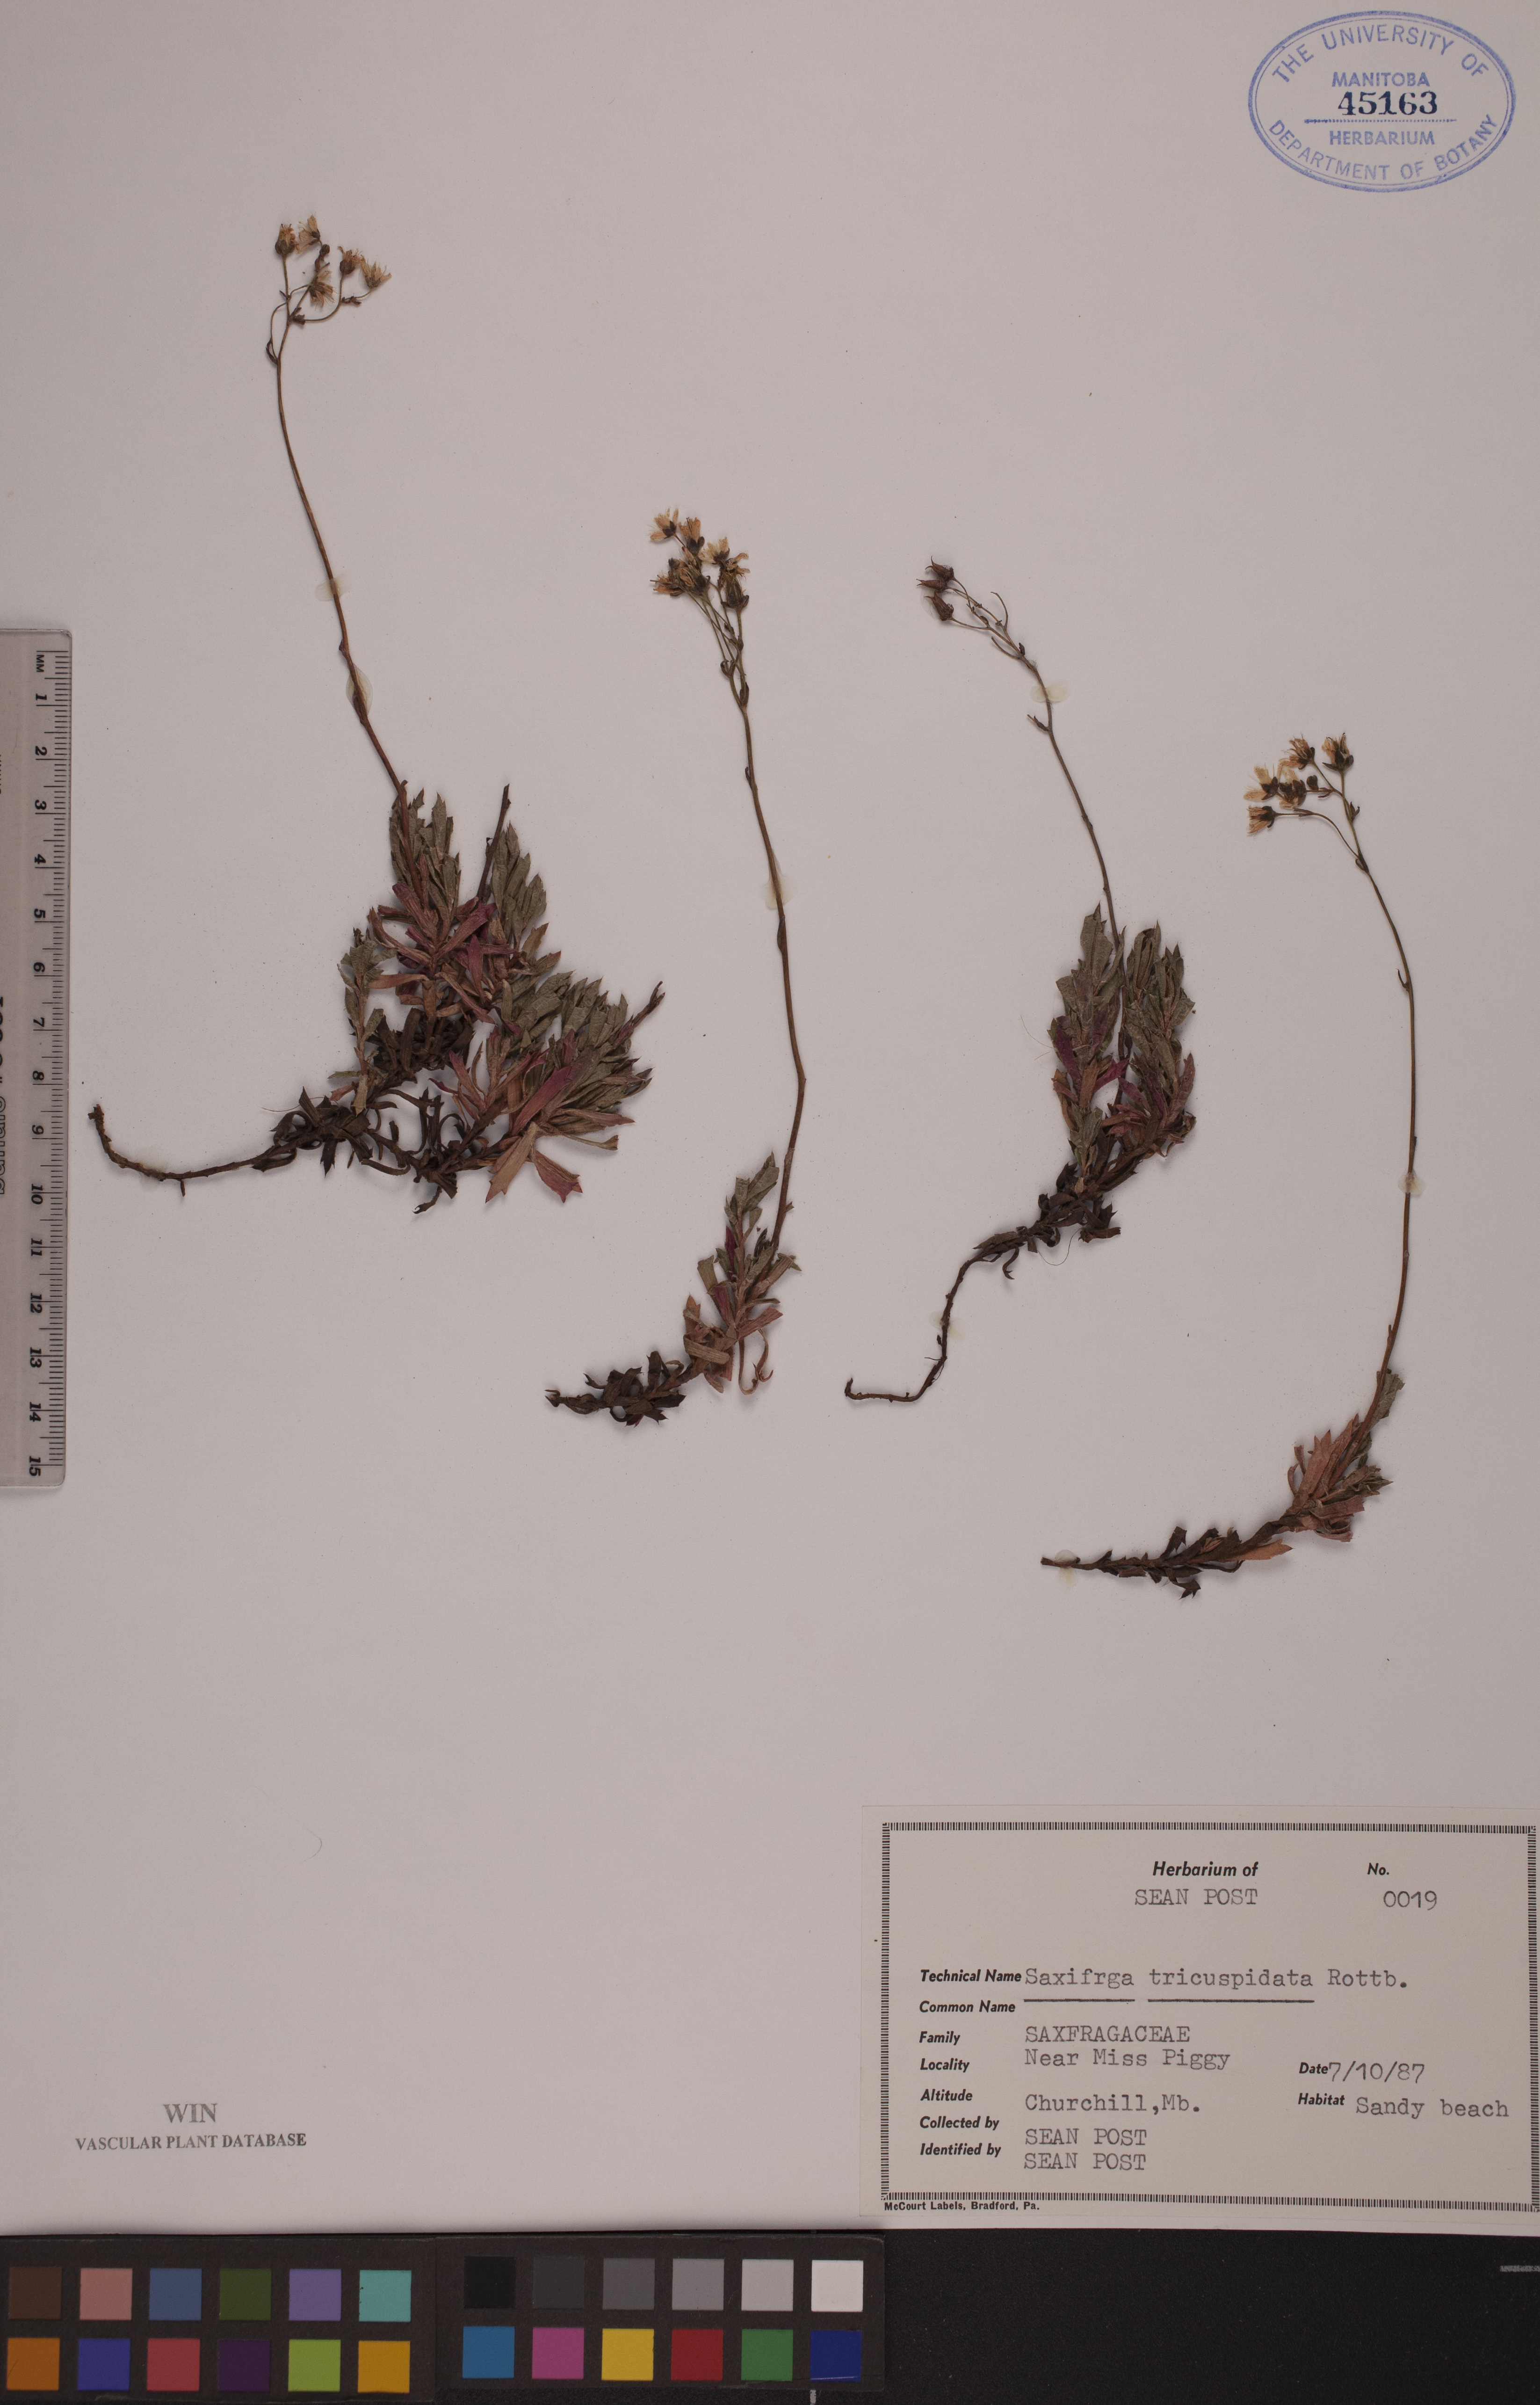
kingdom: Plantae
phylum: Tracheophyta
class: Magnoliopsida
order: Saxifragales
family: Saxifragaceae
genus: Saxifraga
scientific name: Saxifraga tricuspidata
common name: Prickly saxifrage
